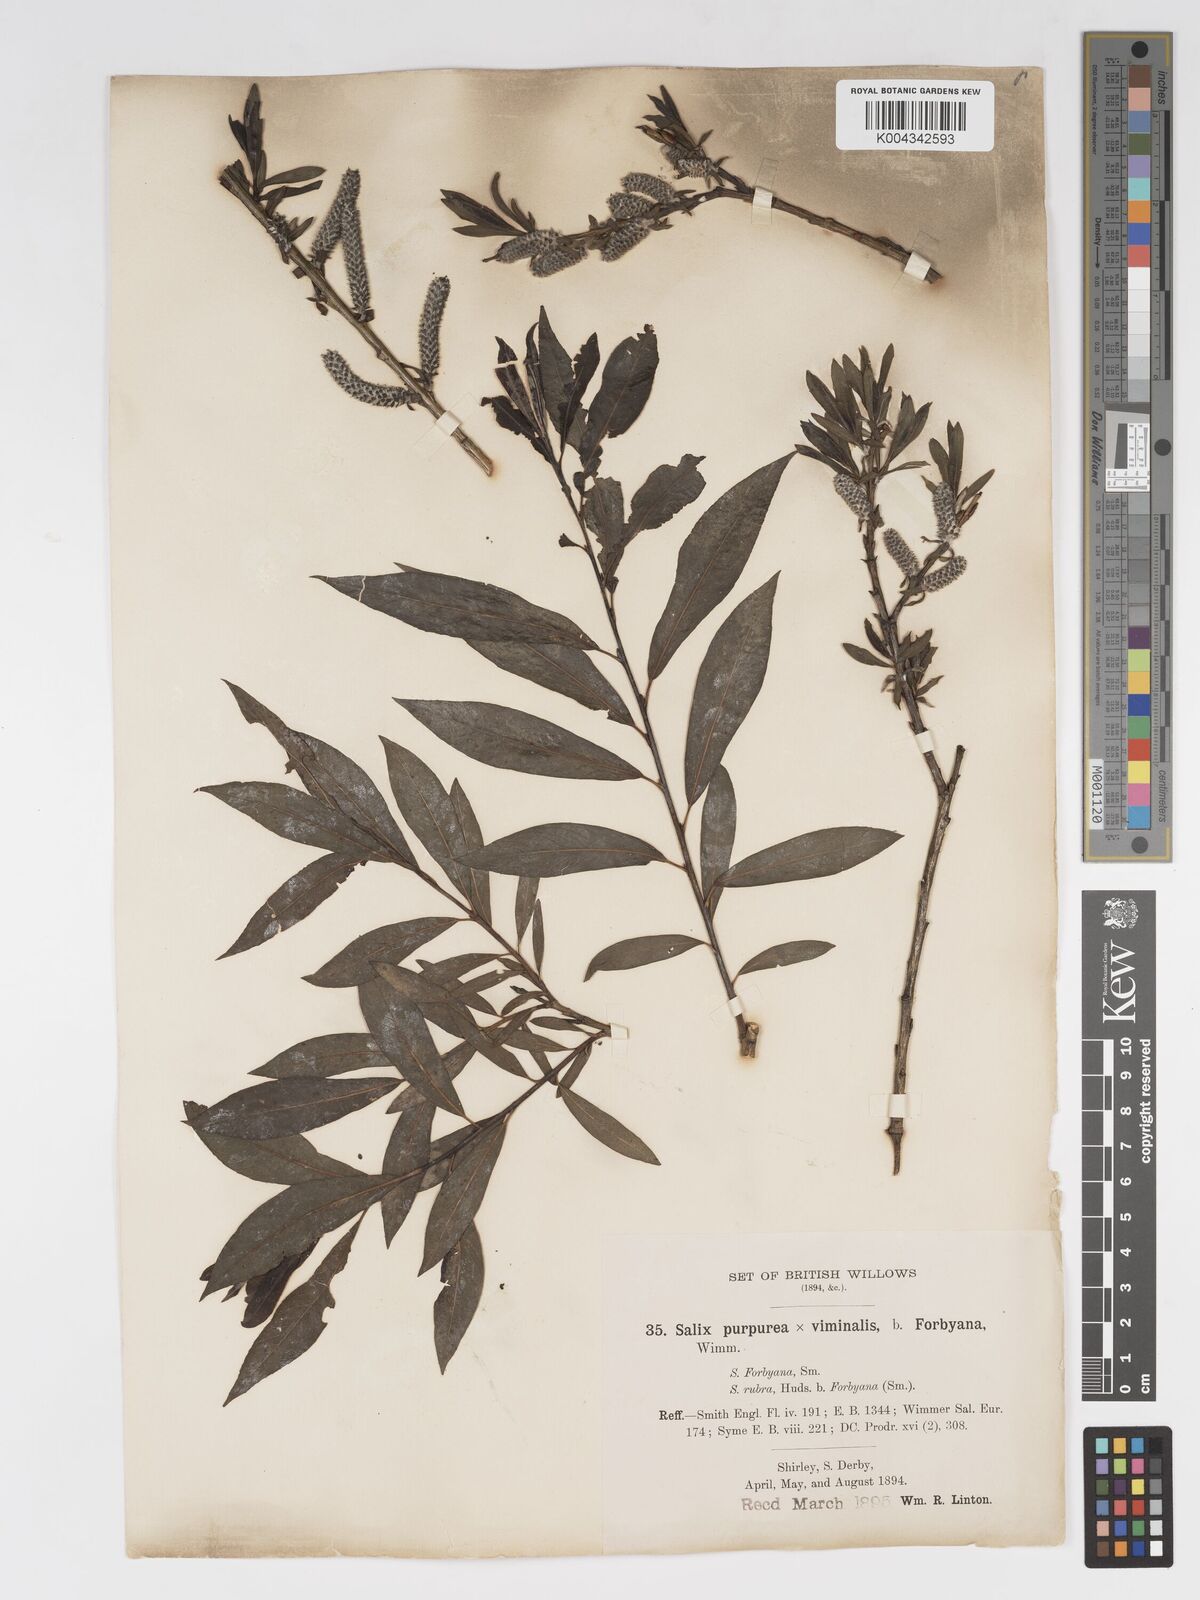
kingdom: Plantae
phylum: Tracheophyta
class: Magnoliopsida
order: Malpighiales
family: Salicaceae
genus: Salix
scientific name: Salix cinerea
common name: Common sallow
